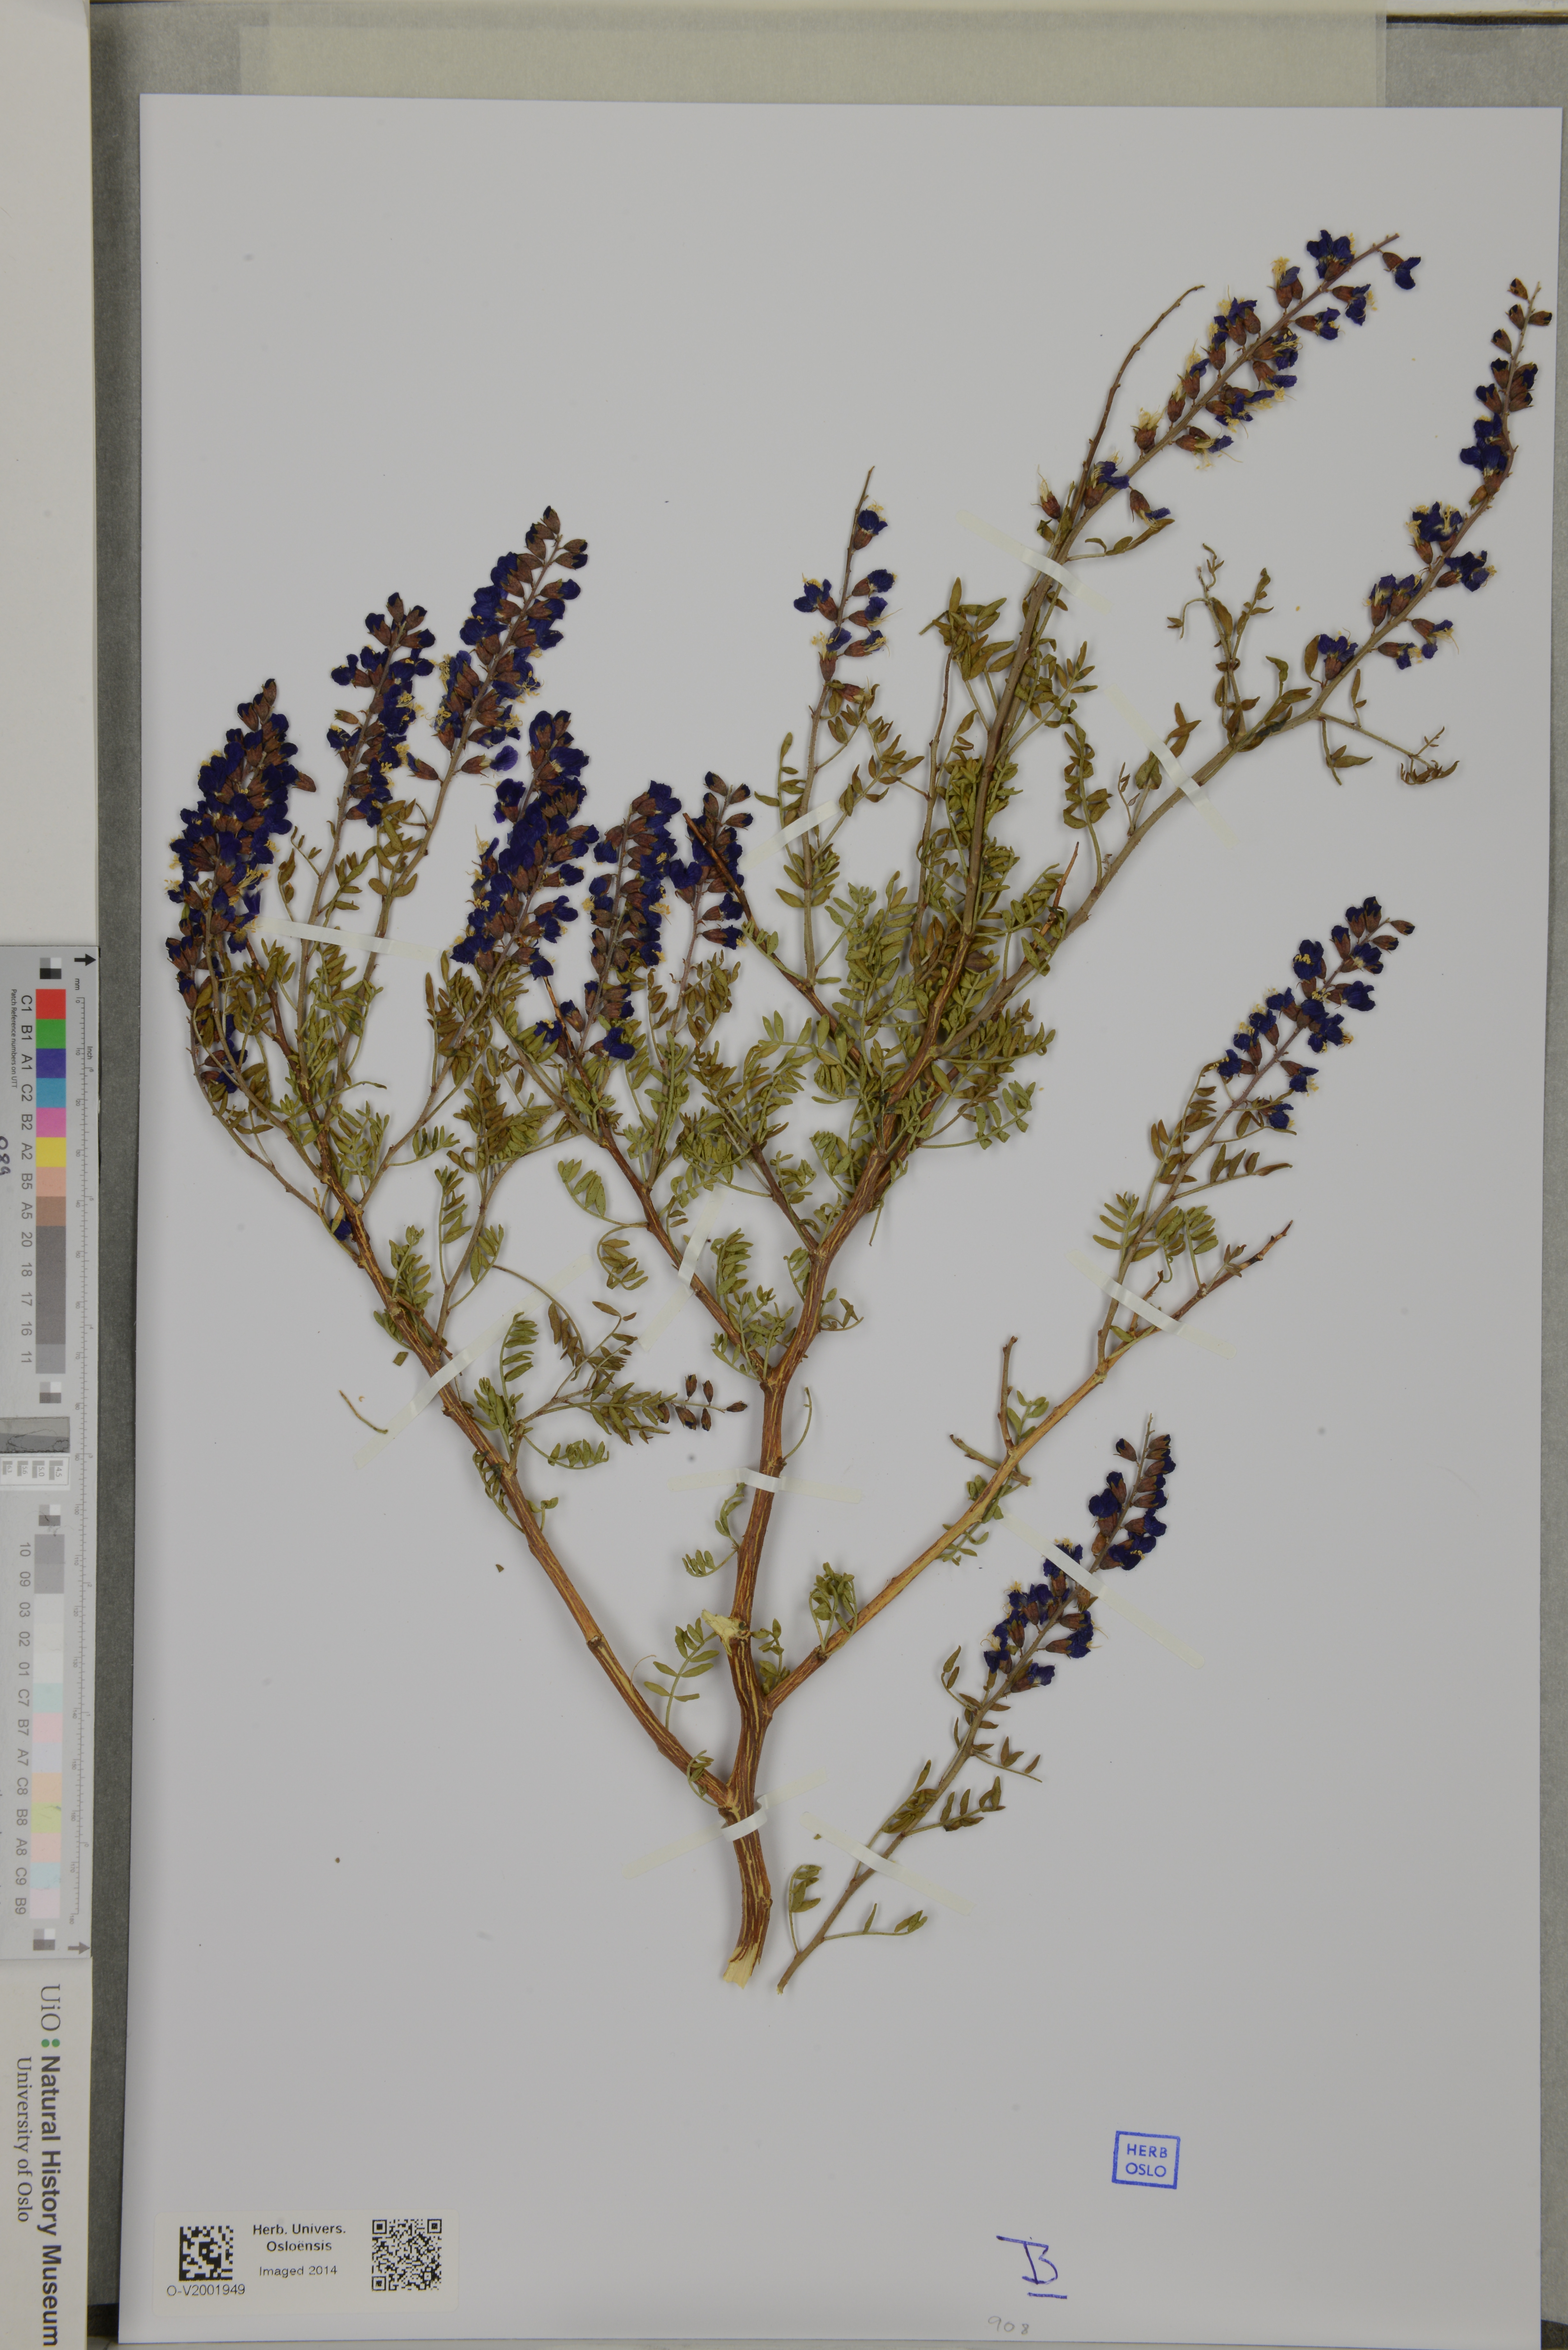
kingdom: Plantae
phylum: Tracheophyta
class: Magnoliopsida
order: Fabales
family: Fabaceae
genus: Psorothamnus
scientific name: Psorothamnus arborescens
